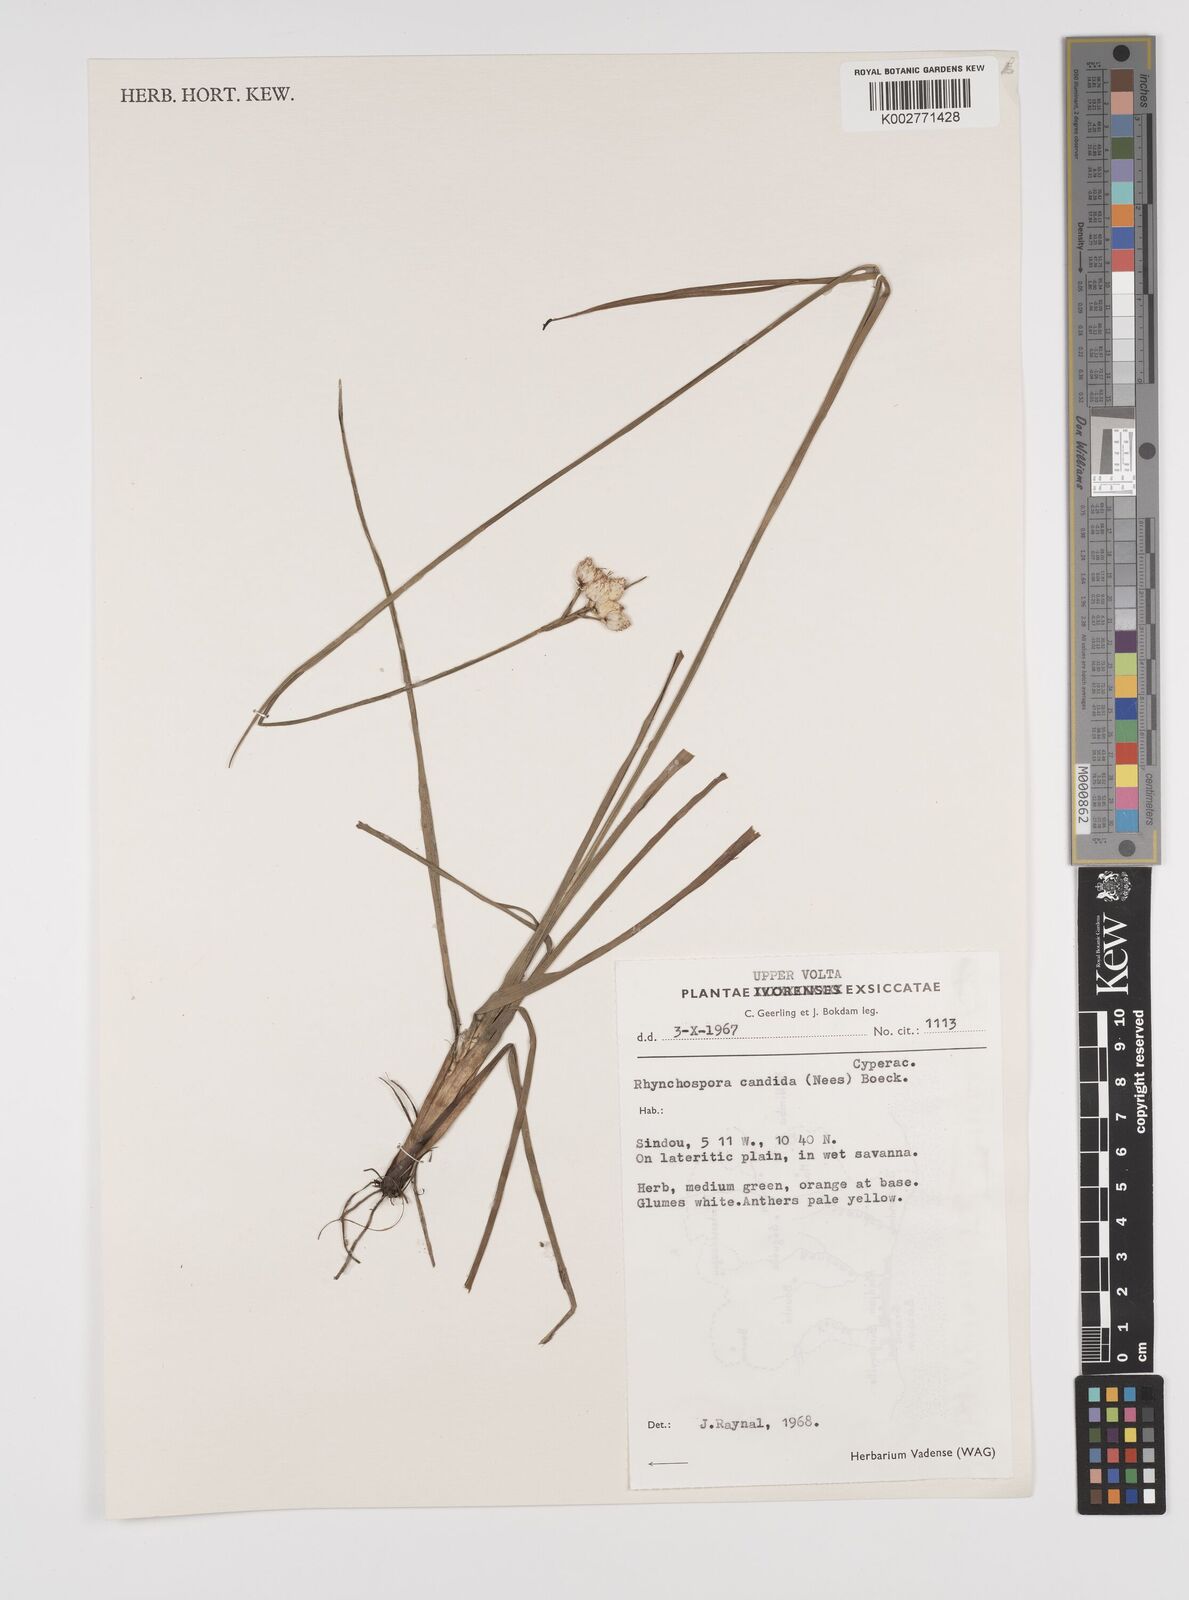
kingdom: Plantae
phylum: Tracheophyta
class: Liliopsida
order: Poales
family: Cyperaceae
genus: Rhynchospora
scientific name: Rhynchospora candida
